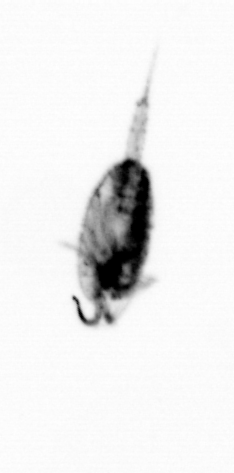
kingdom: Animalia
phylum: Arthropoda
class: Copepoda
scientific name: Copepoda
